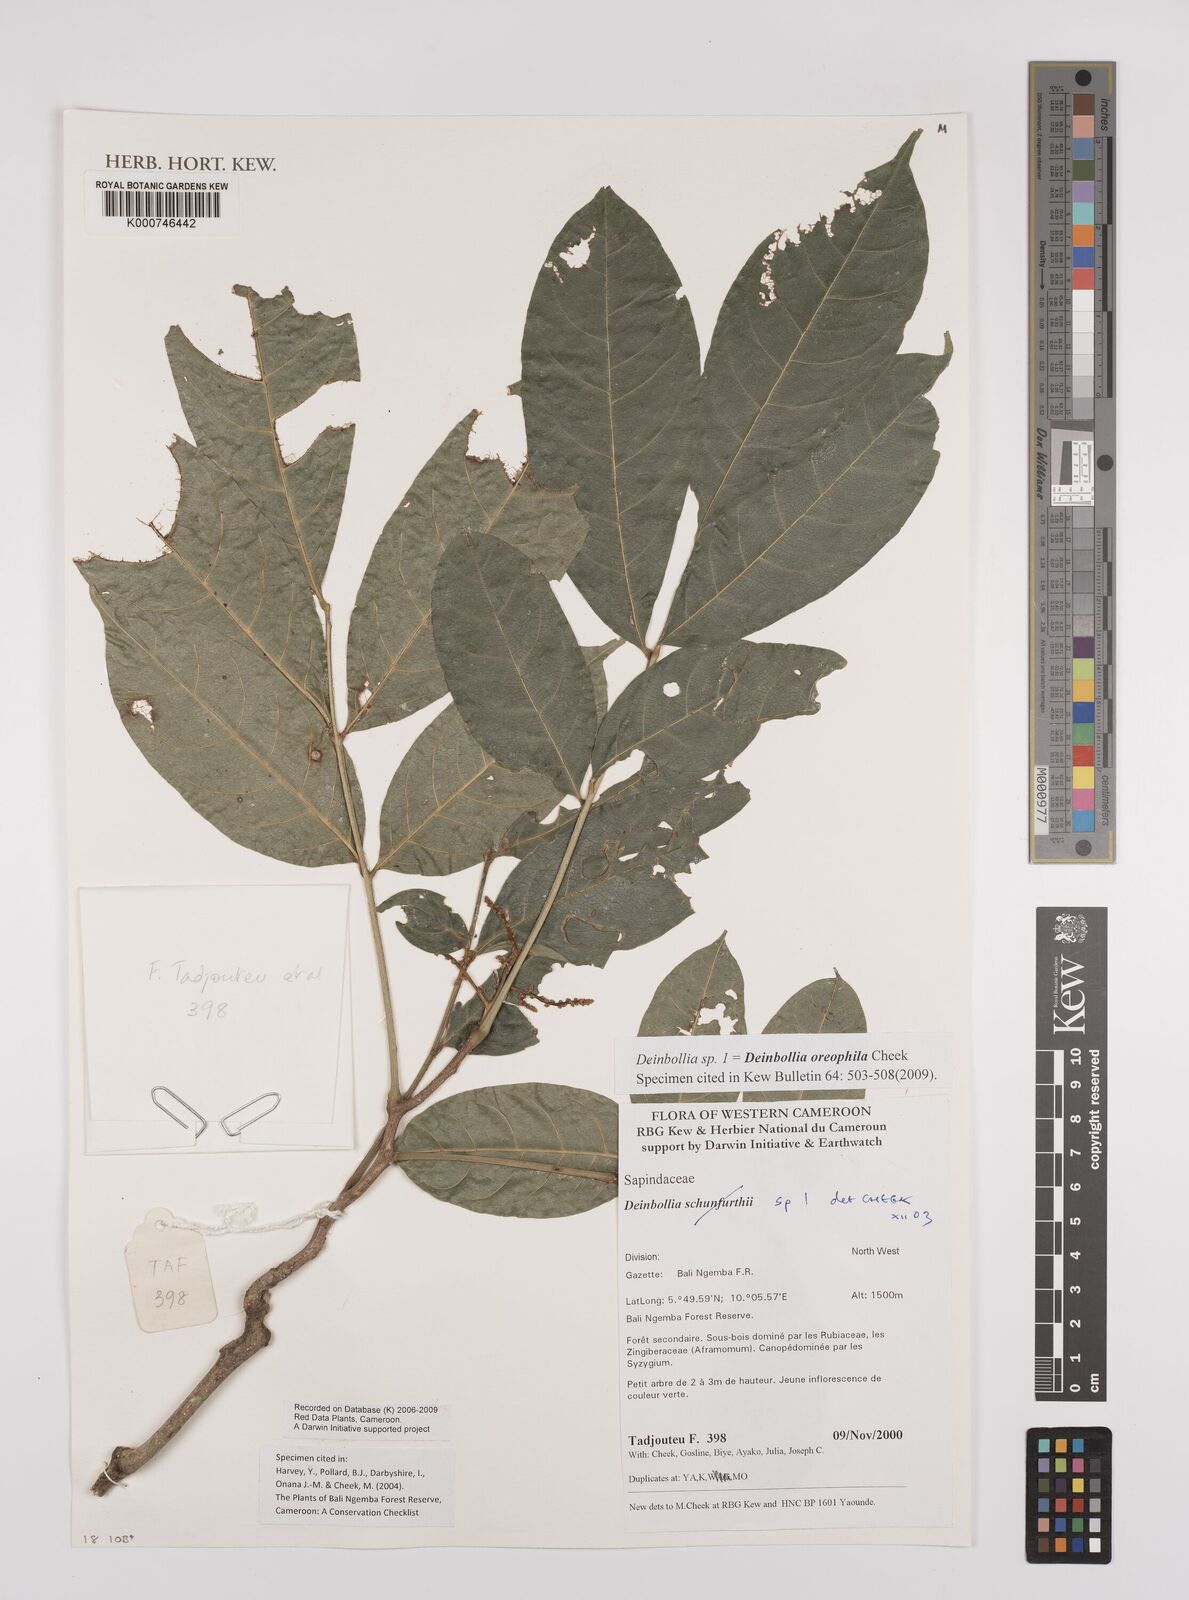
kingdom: Plantae
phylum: Tracheophyta
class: Magnoliopsida
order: Sapindales
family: Sapindaceae
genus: Deinbollia
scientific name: Deinbollia oreophila
